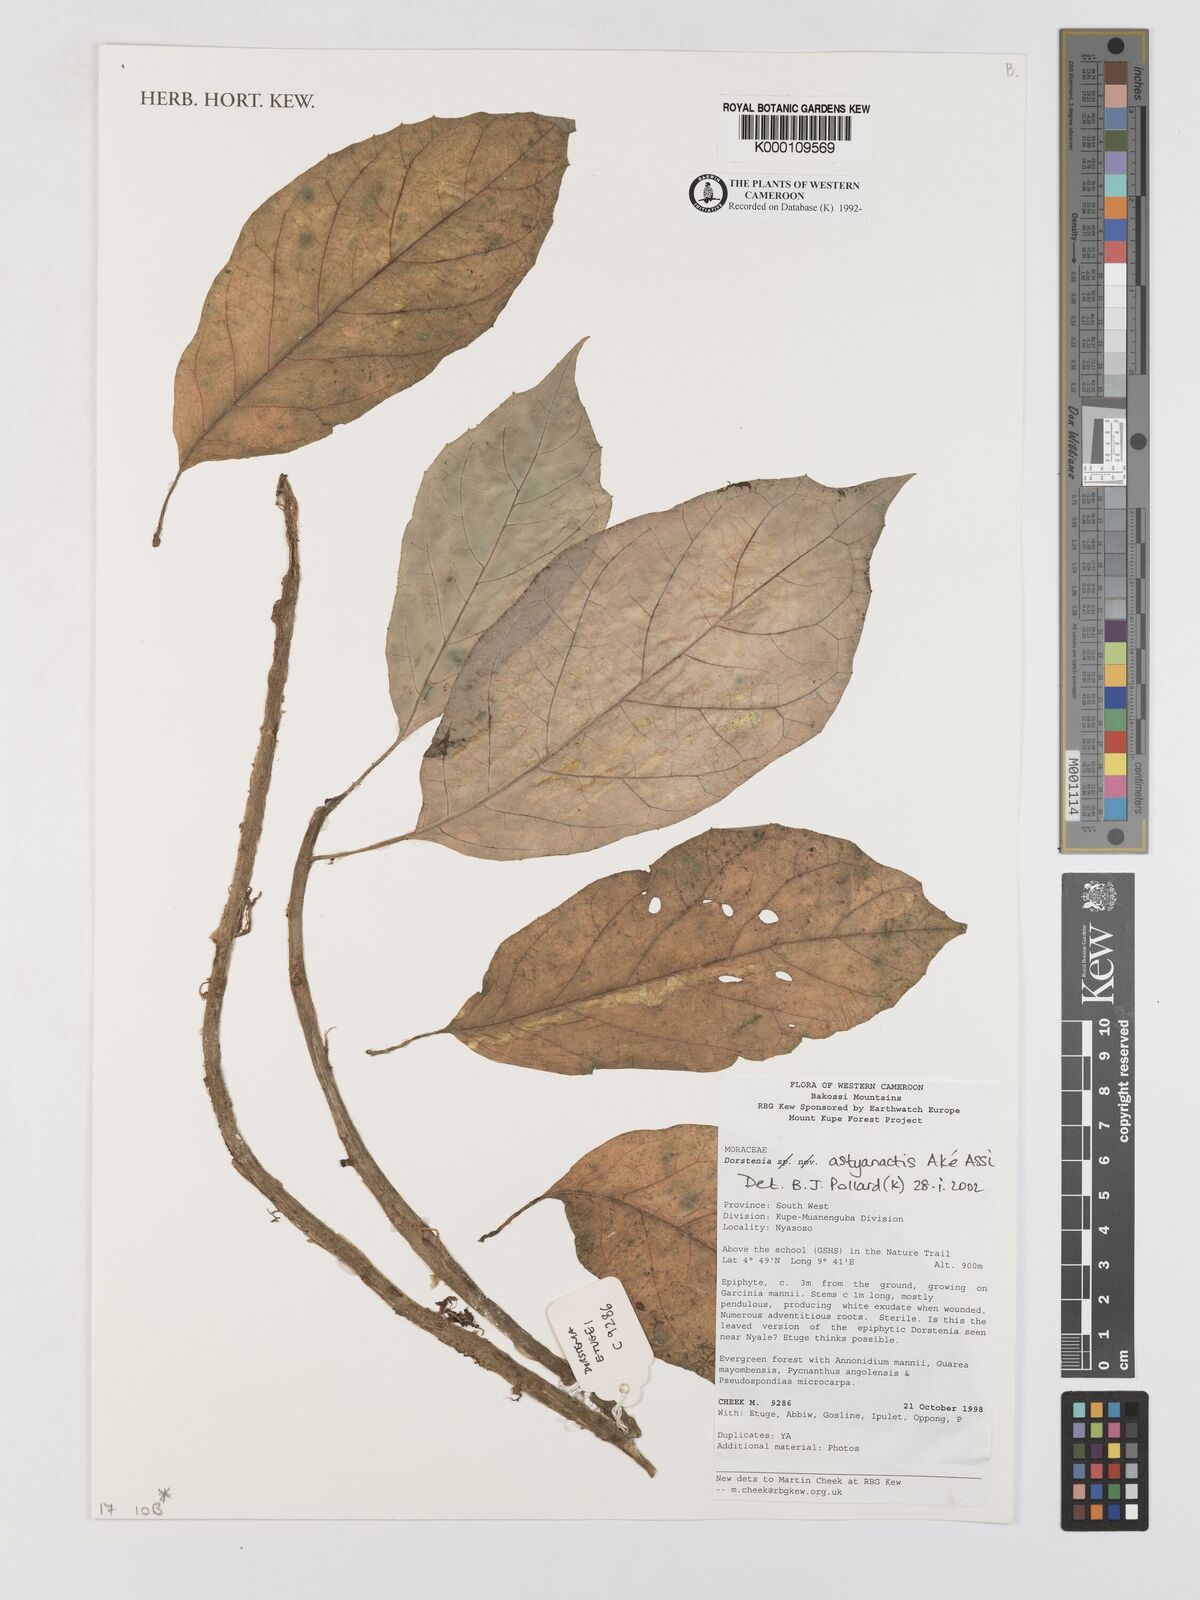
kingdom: Plantae
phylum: Tracheophyta
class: Magnoliopsida
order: Rosales
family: Moraceae
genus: Dorstenia
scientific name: Dorstenia
